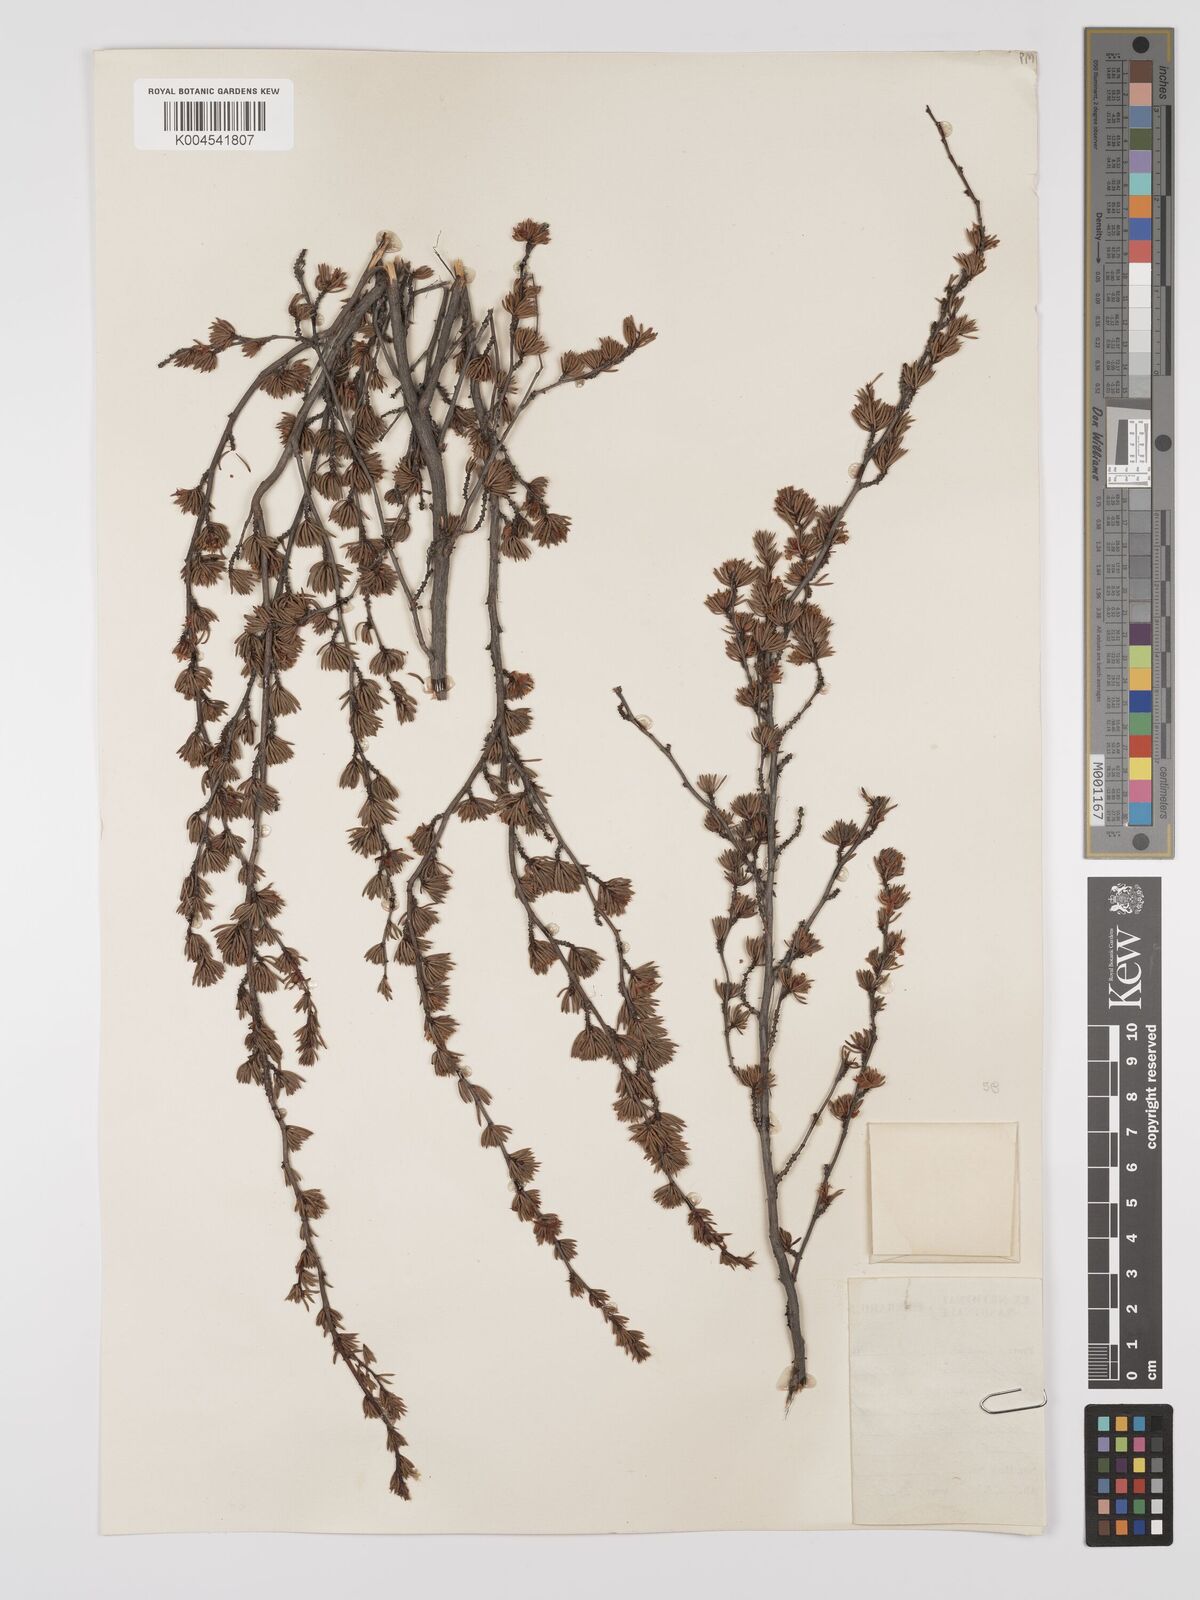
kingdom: Plantae
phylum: Tracheophyta
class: Magnoliopsida
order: Rosales
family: Rosaceae
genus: Cliffortia
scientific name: Cliffortia teretifolia
